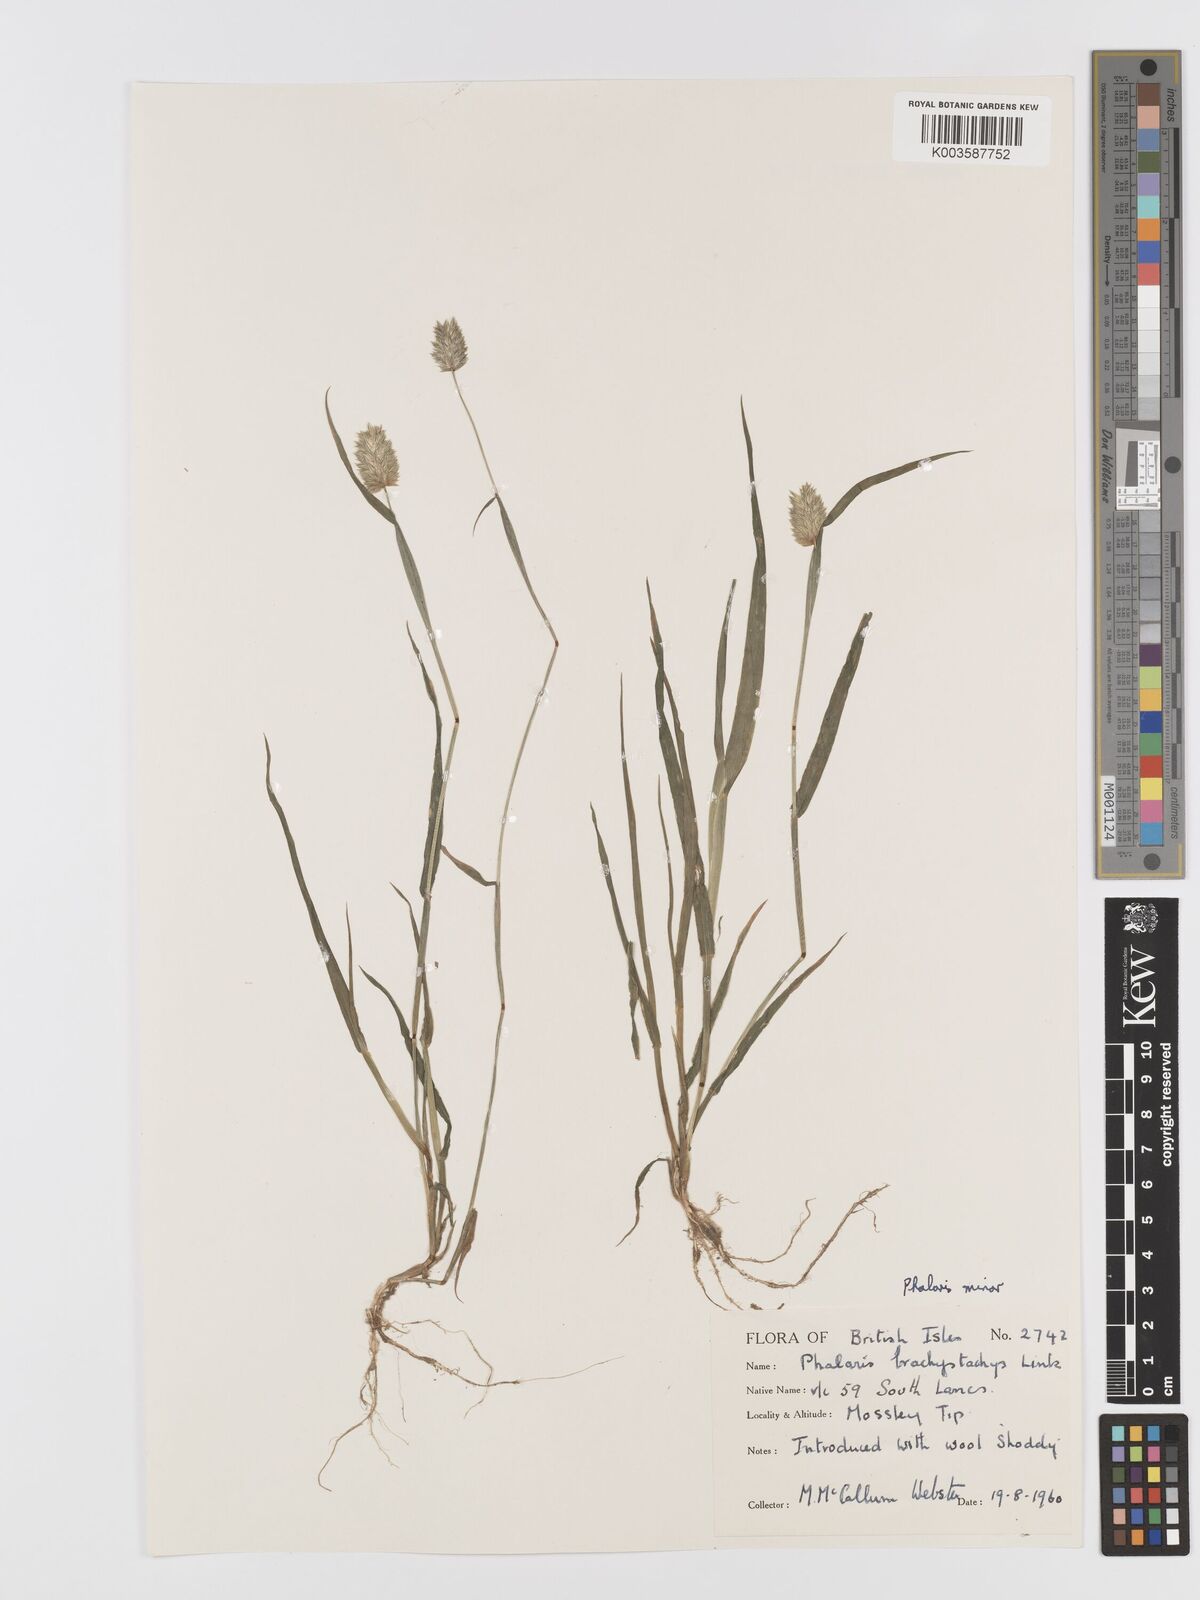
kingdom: Plantae
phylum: Tracheophyta
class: Liliopsida
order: Poales
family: Poaceae
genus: Phalaris
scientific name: Phalaris minor
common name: Littleseed canarygrass
